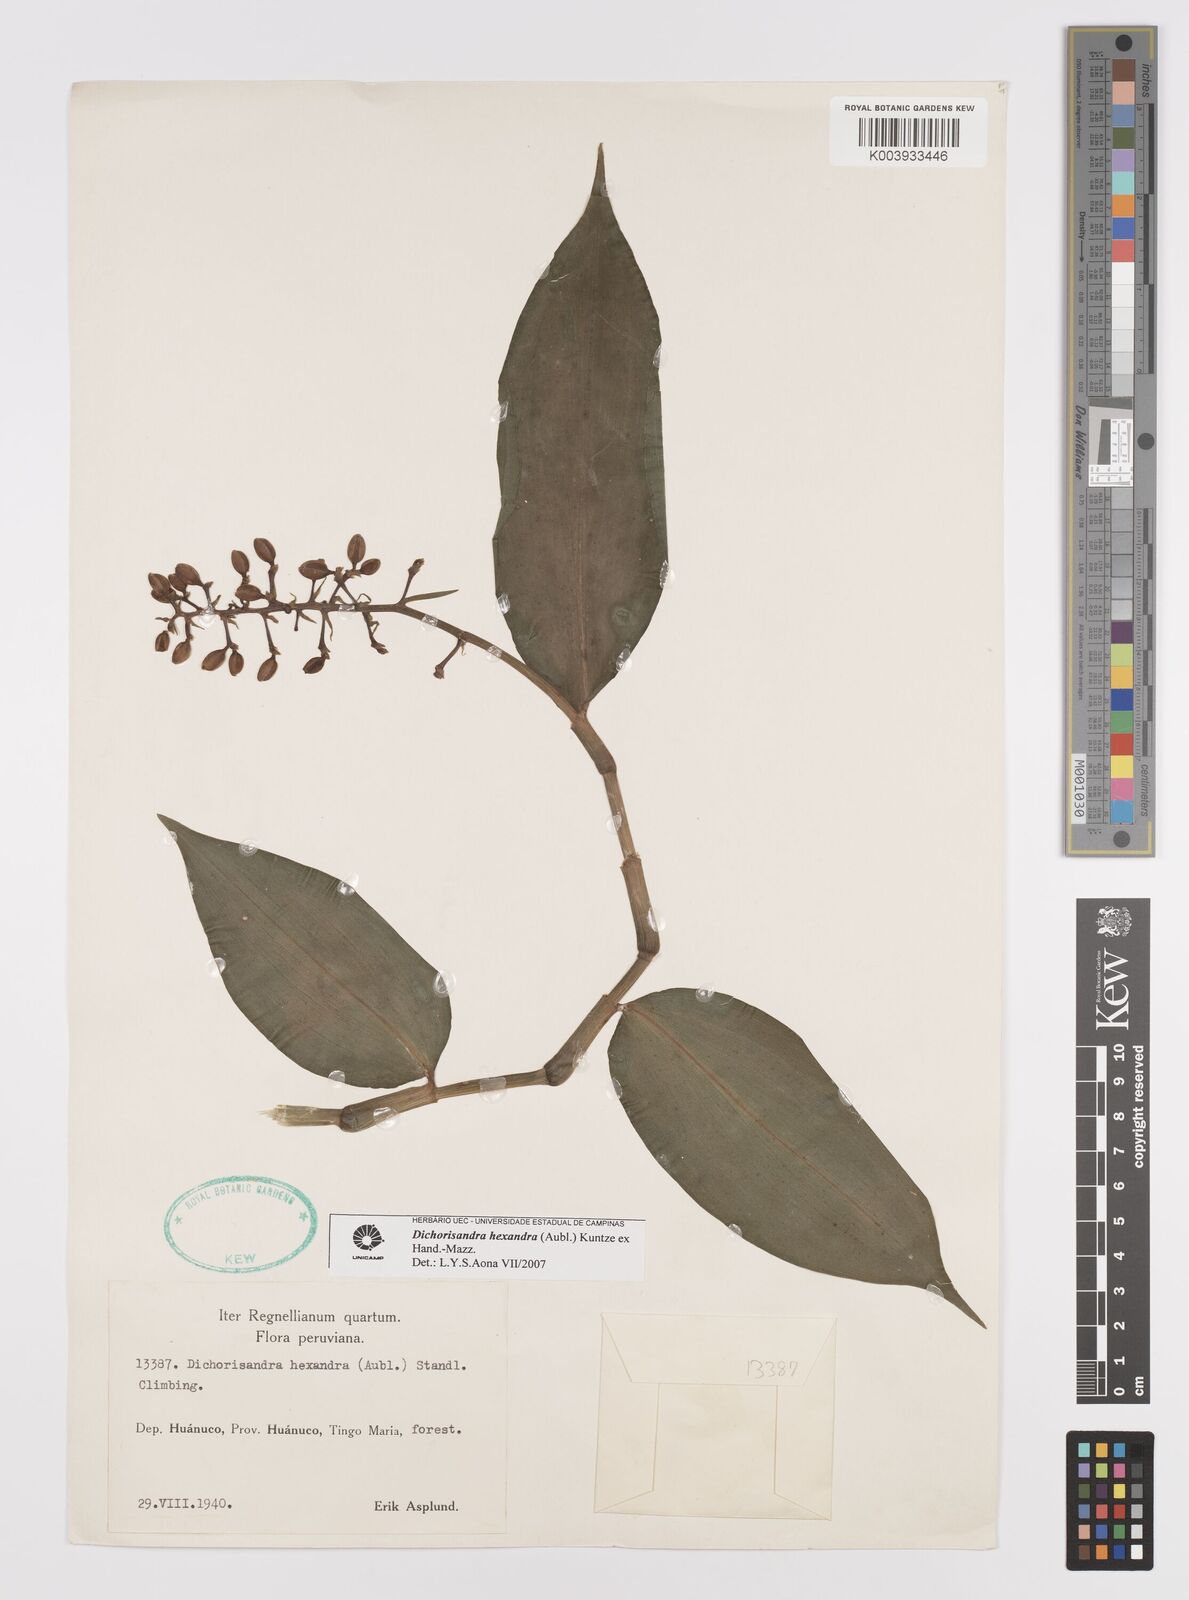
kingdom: Plantae
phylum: Tracheophyta
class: Liliopsida
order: Commelinales
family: Commelinaceae
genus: Dichorisandra
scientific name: Dichorisandra hexandra
